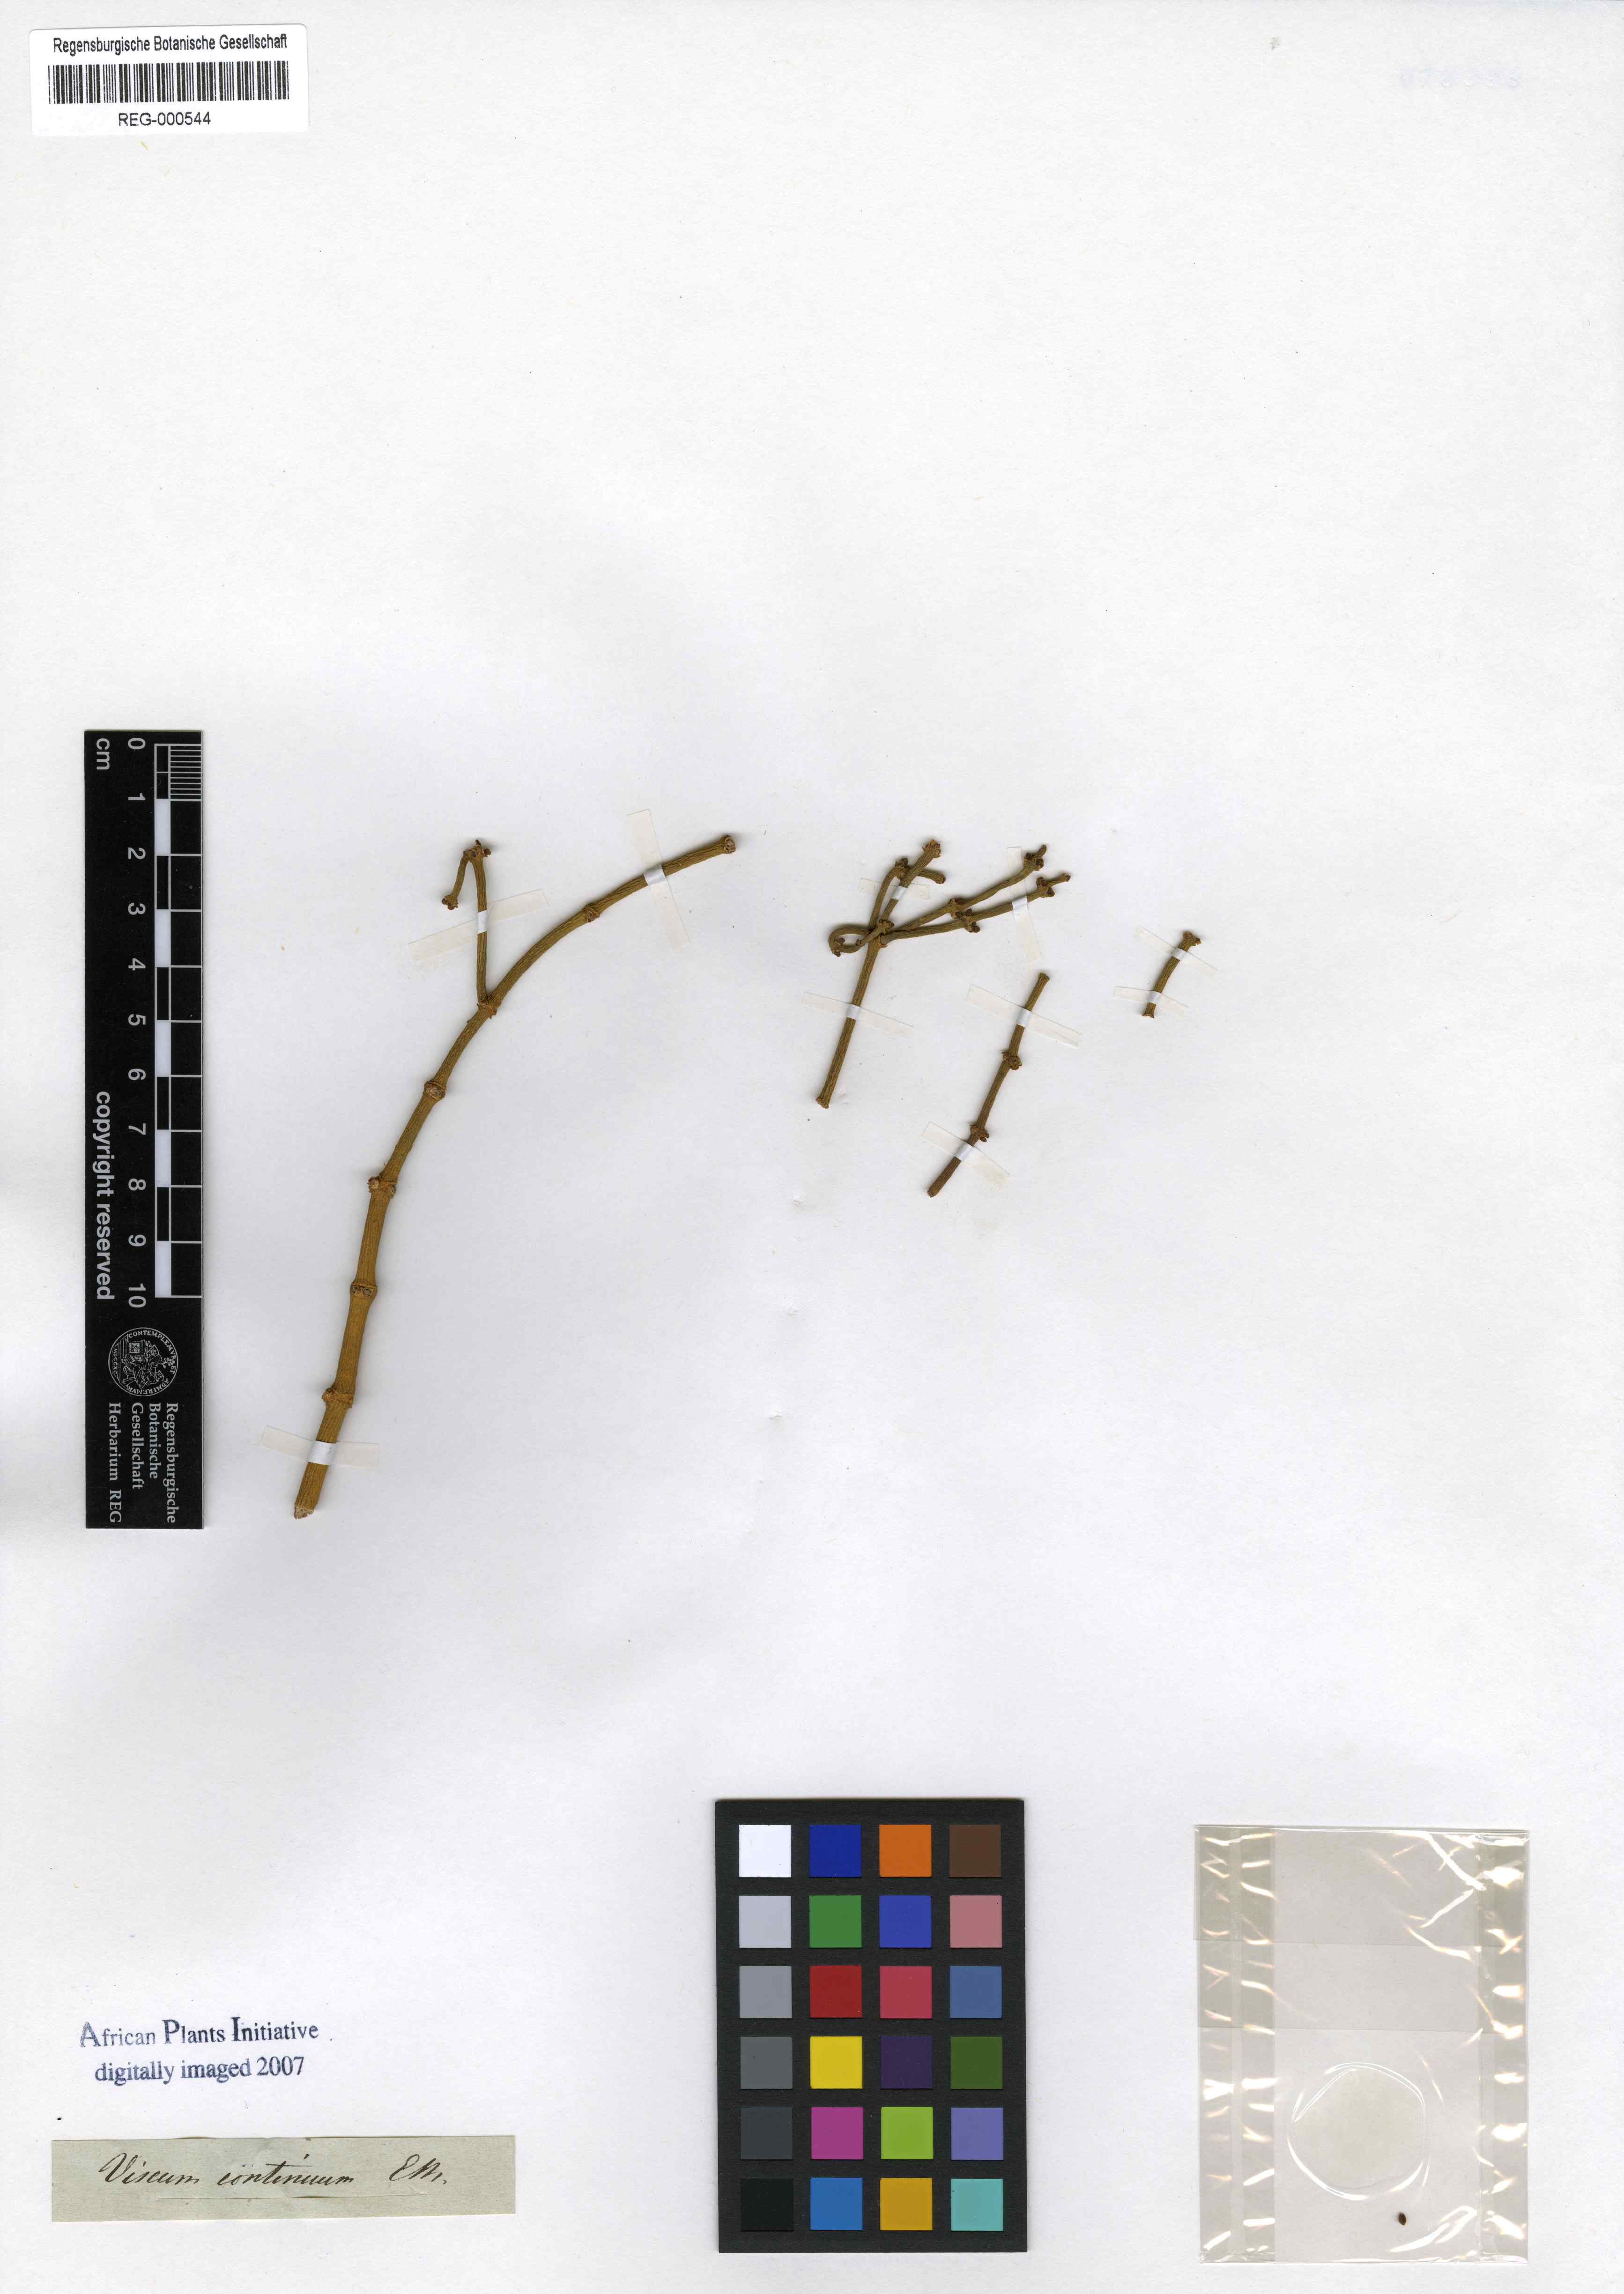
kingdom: Plantae
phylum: Tracheophyta
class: Magnoliopsida
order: Santalales
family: Viscaceae
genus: Viscum
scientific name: Viscum continuum
